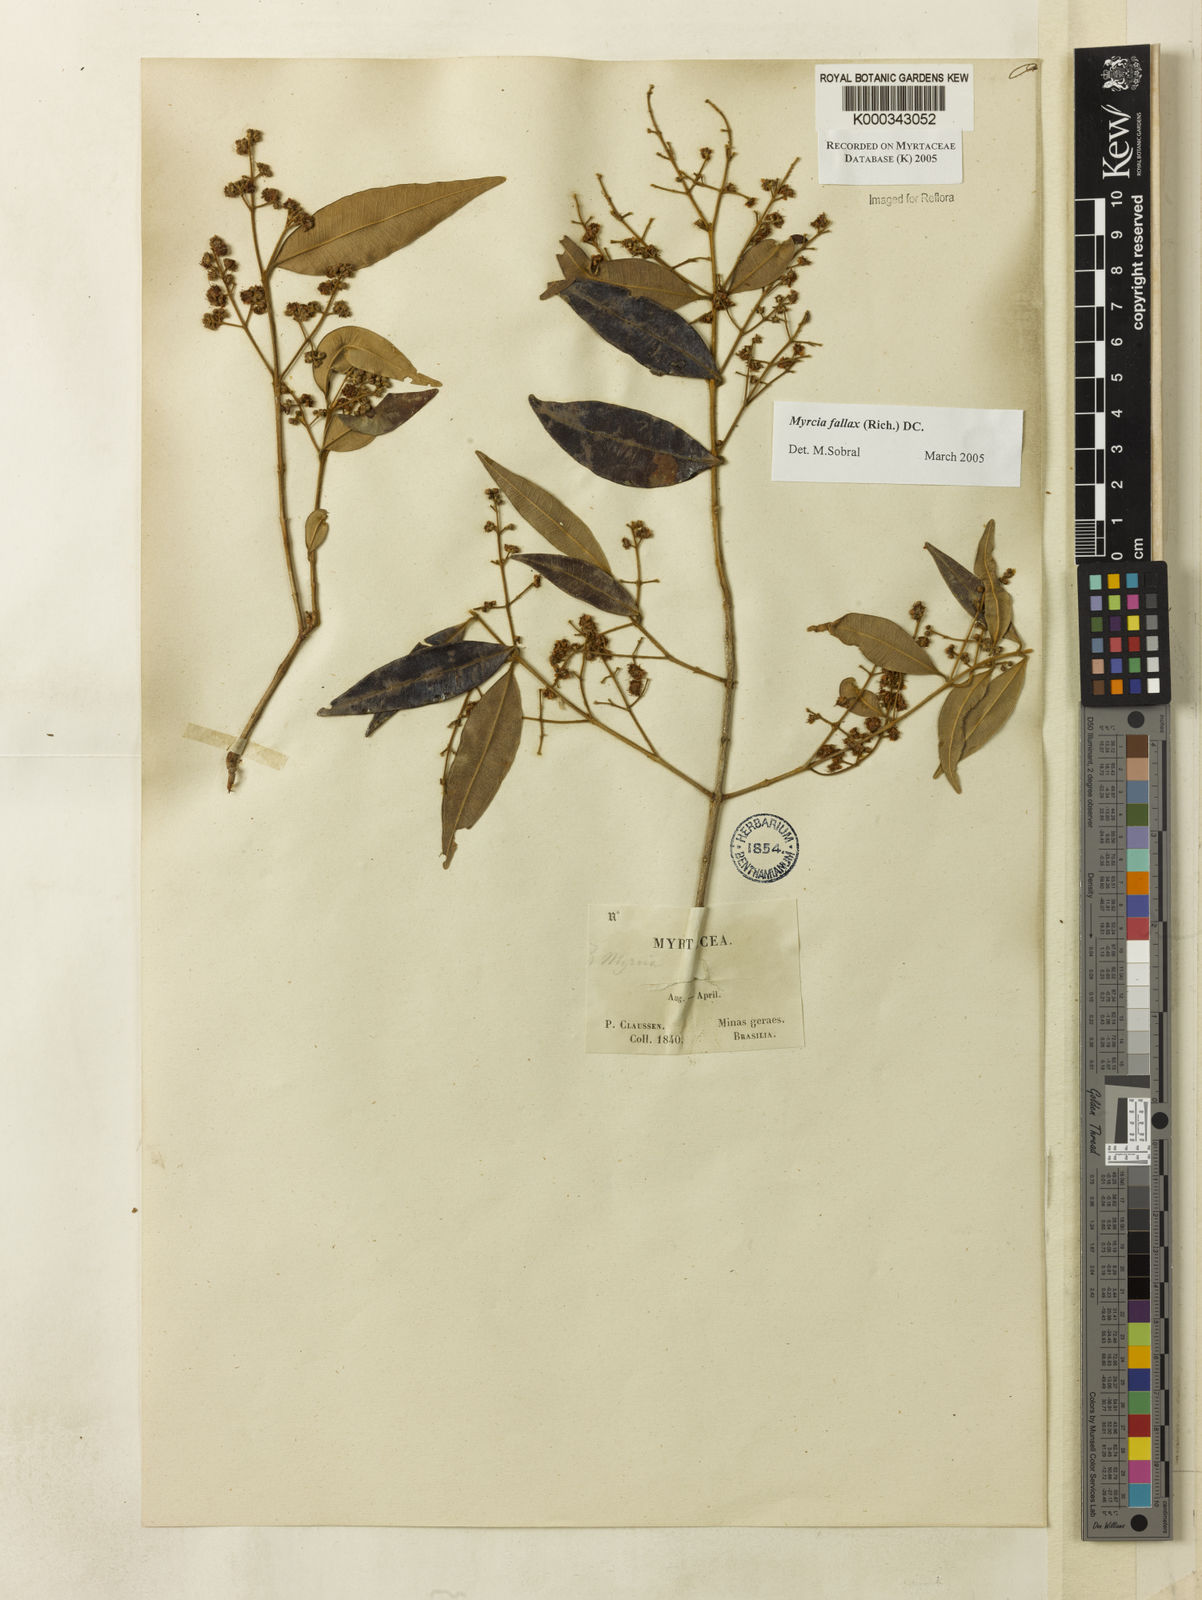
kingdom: Plantae
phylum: Tracheophyta
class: Magnoliopsida
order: Myrtales
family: Myrtaceae
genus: Myrcia
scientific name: Myrcia splendens
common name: Surinam cherry
